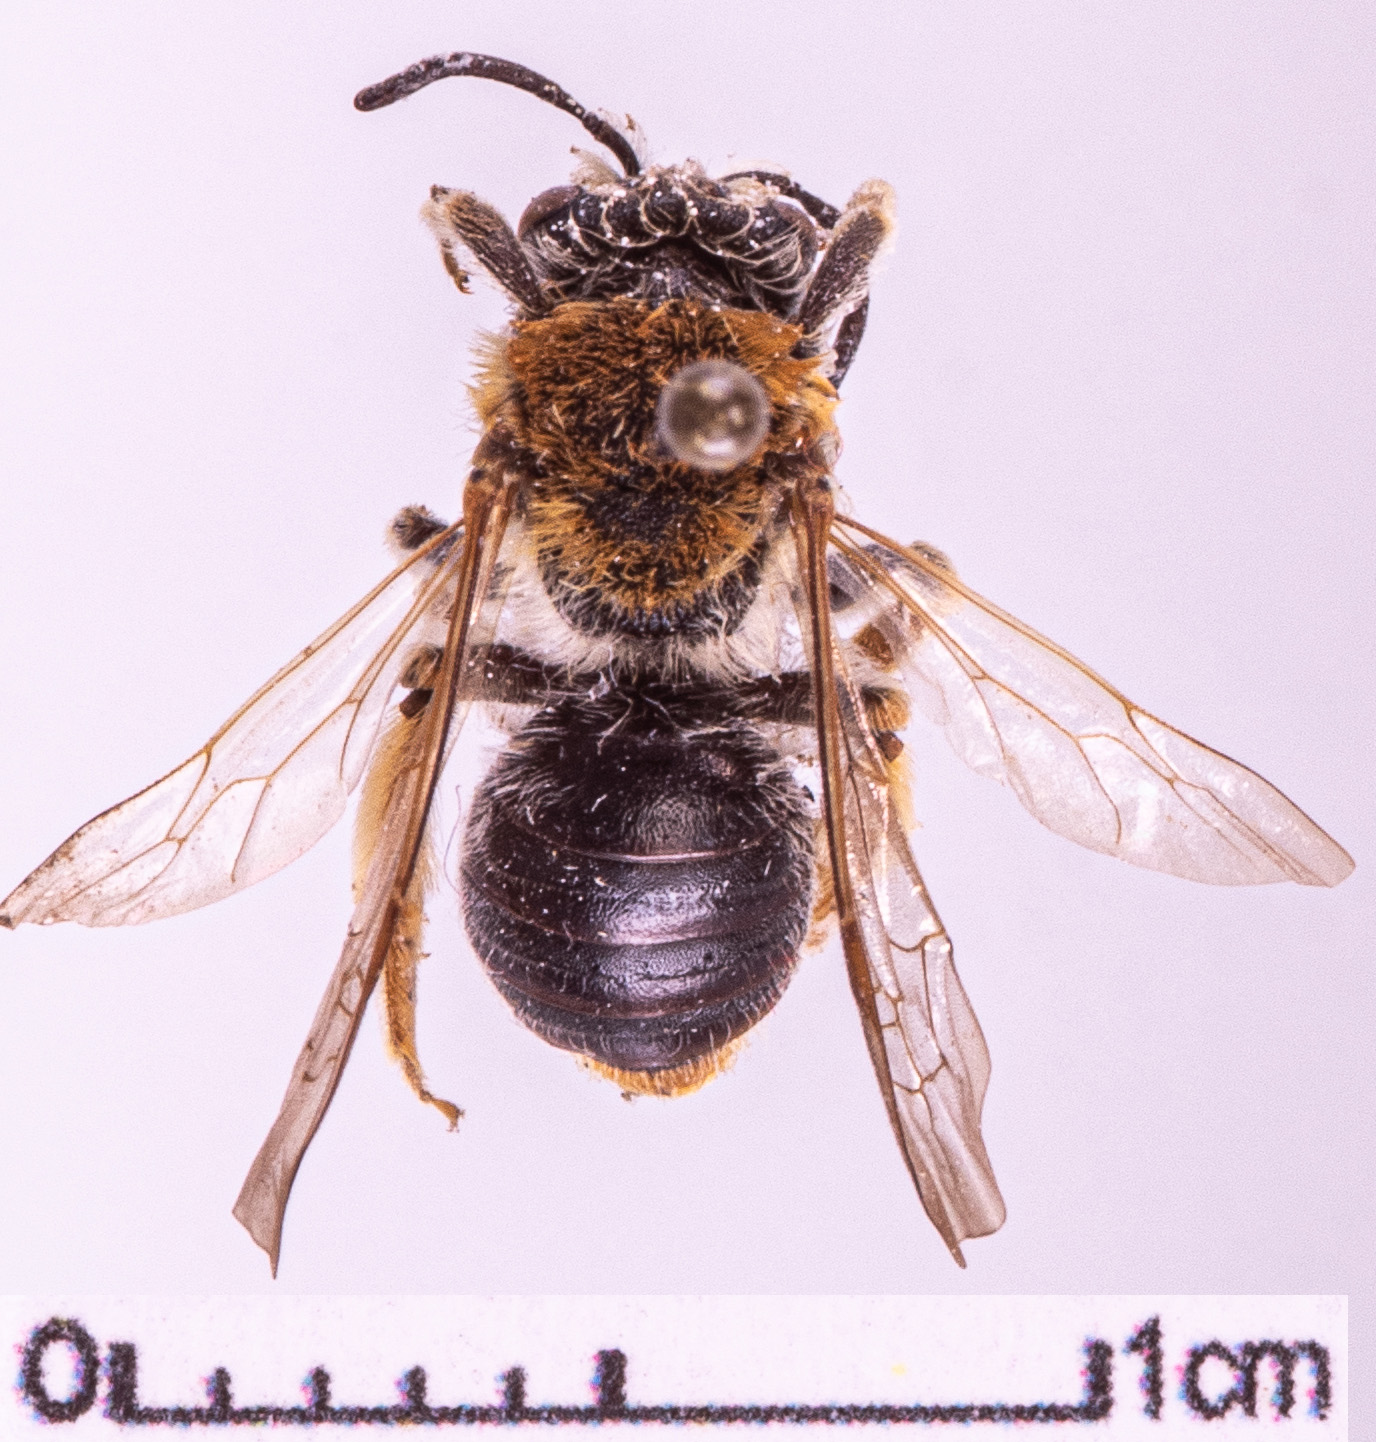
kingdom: Animalia
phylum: Arthropoda
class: Insecta
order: Hymenoptera
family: Andrenidae
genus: Andrena
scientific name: Andrena haemorrhoa
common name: Early mining bee
